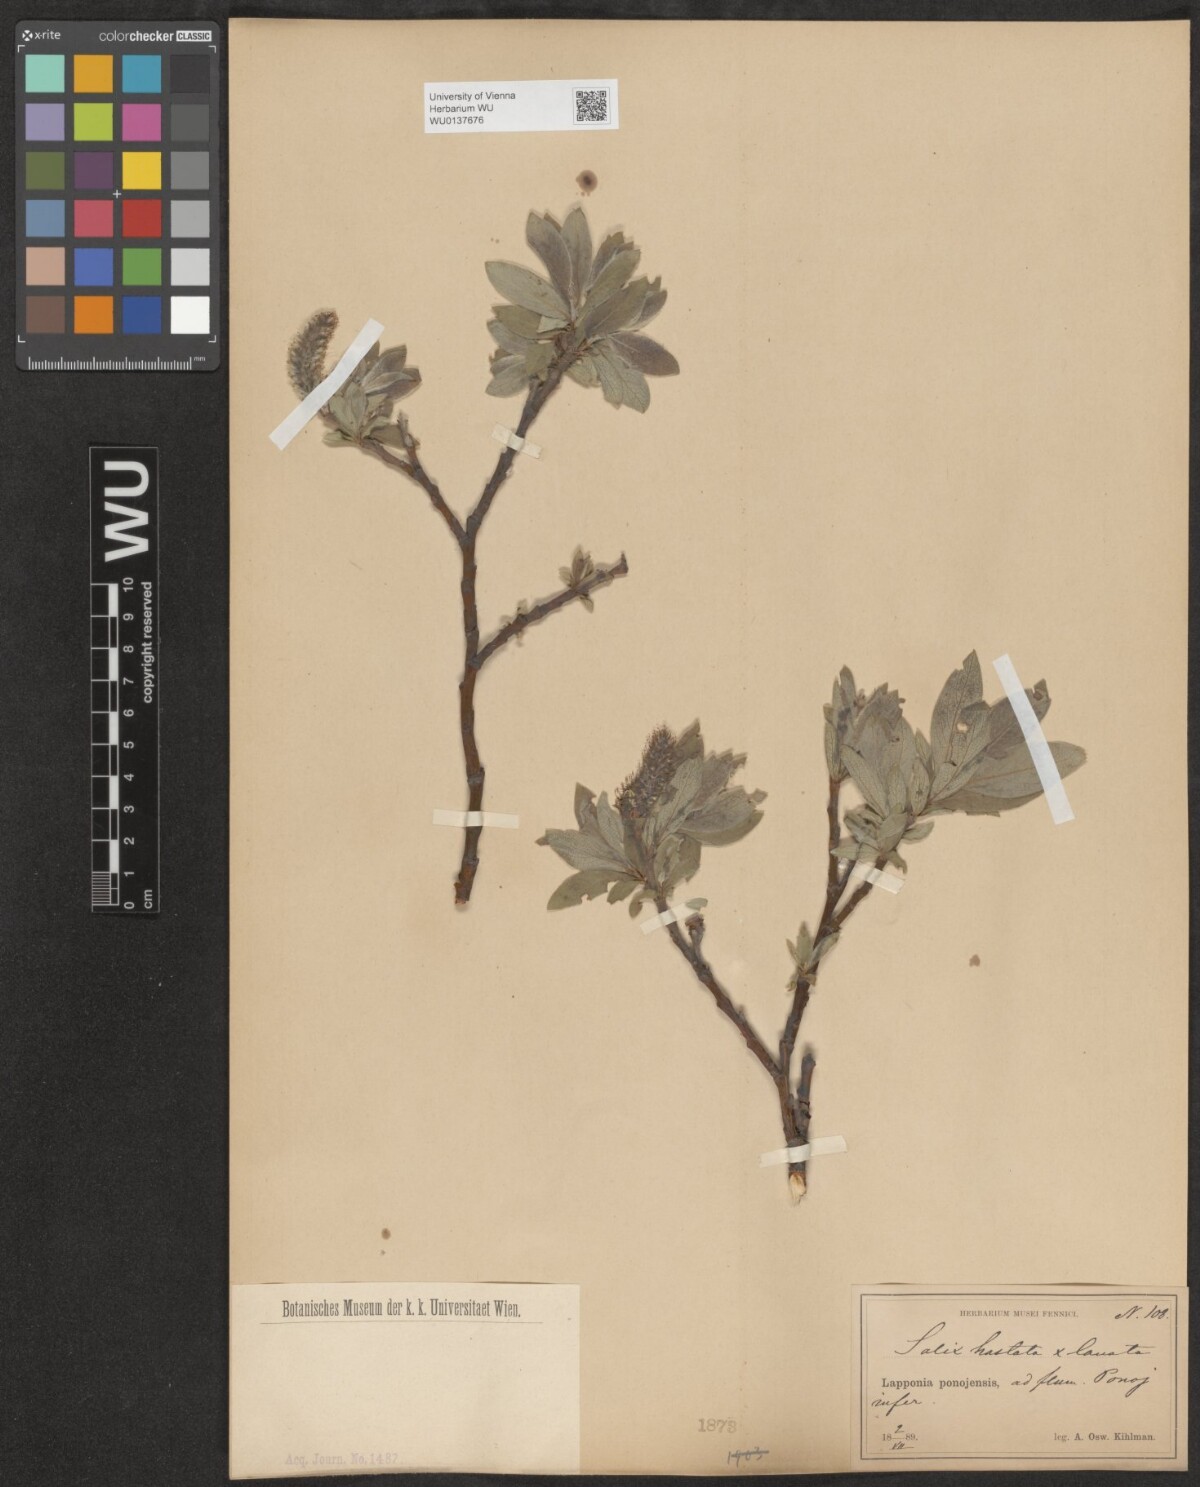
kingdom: Plantae
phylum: Tracheophyta
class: Magnoliopsida
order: Malpighiales
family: Salicaceae
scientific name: Salicaceae
